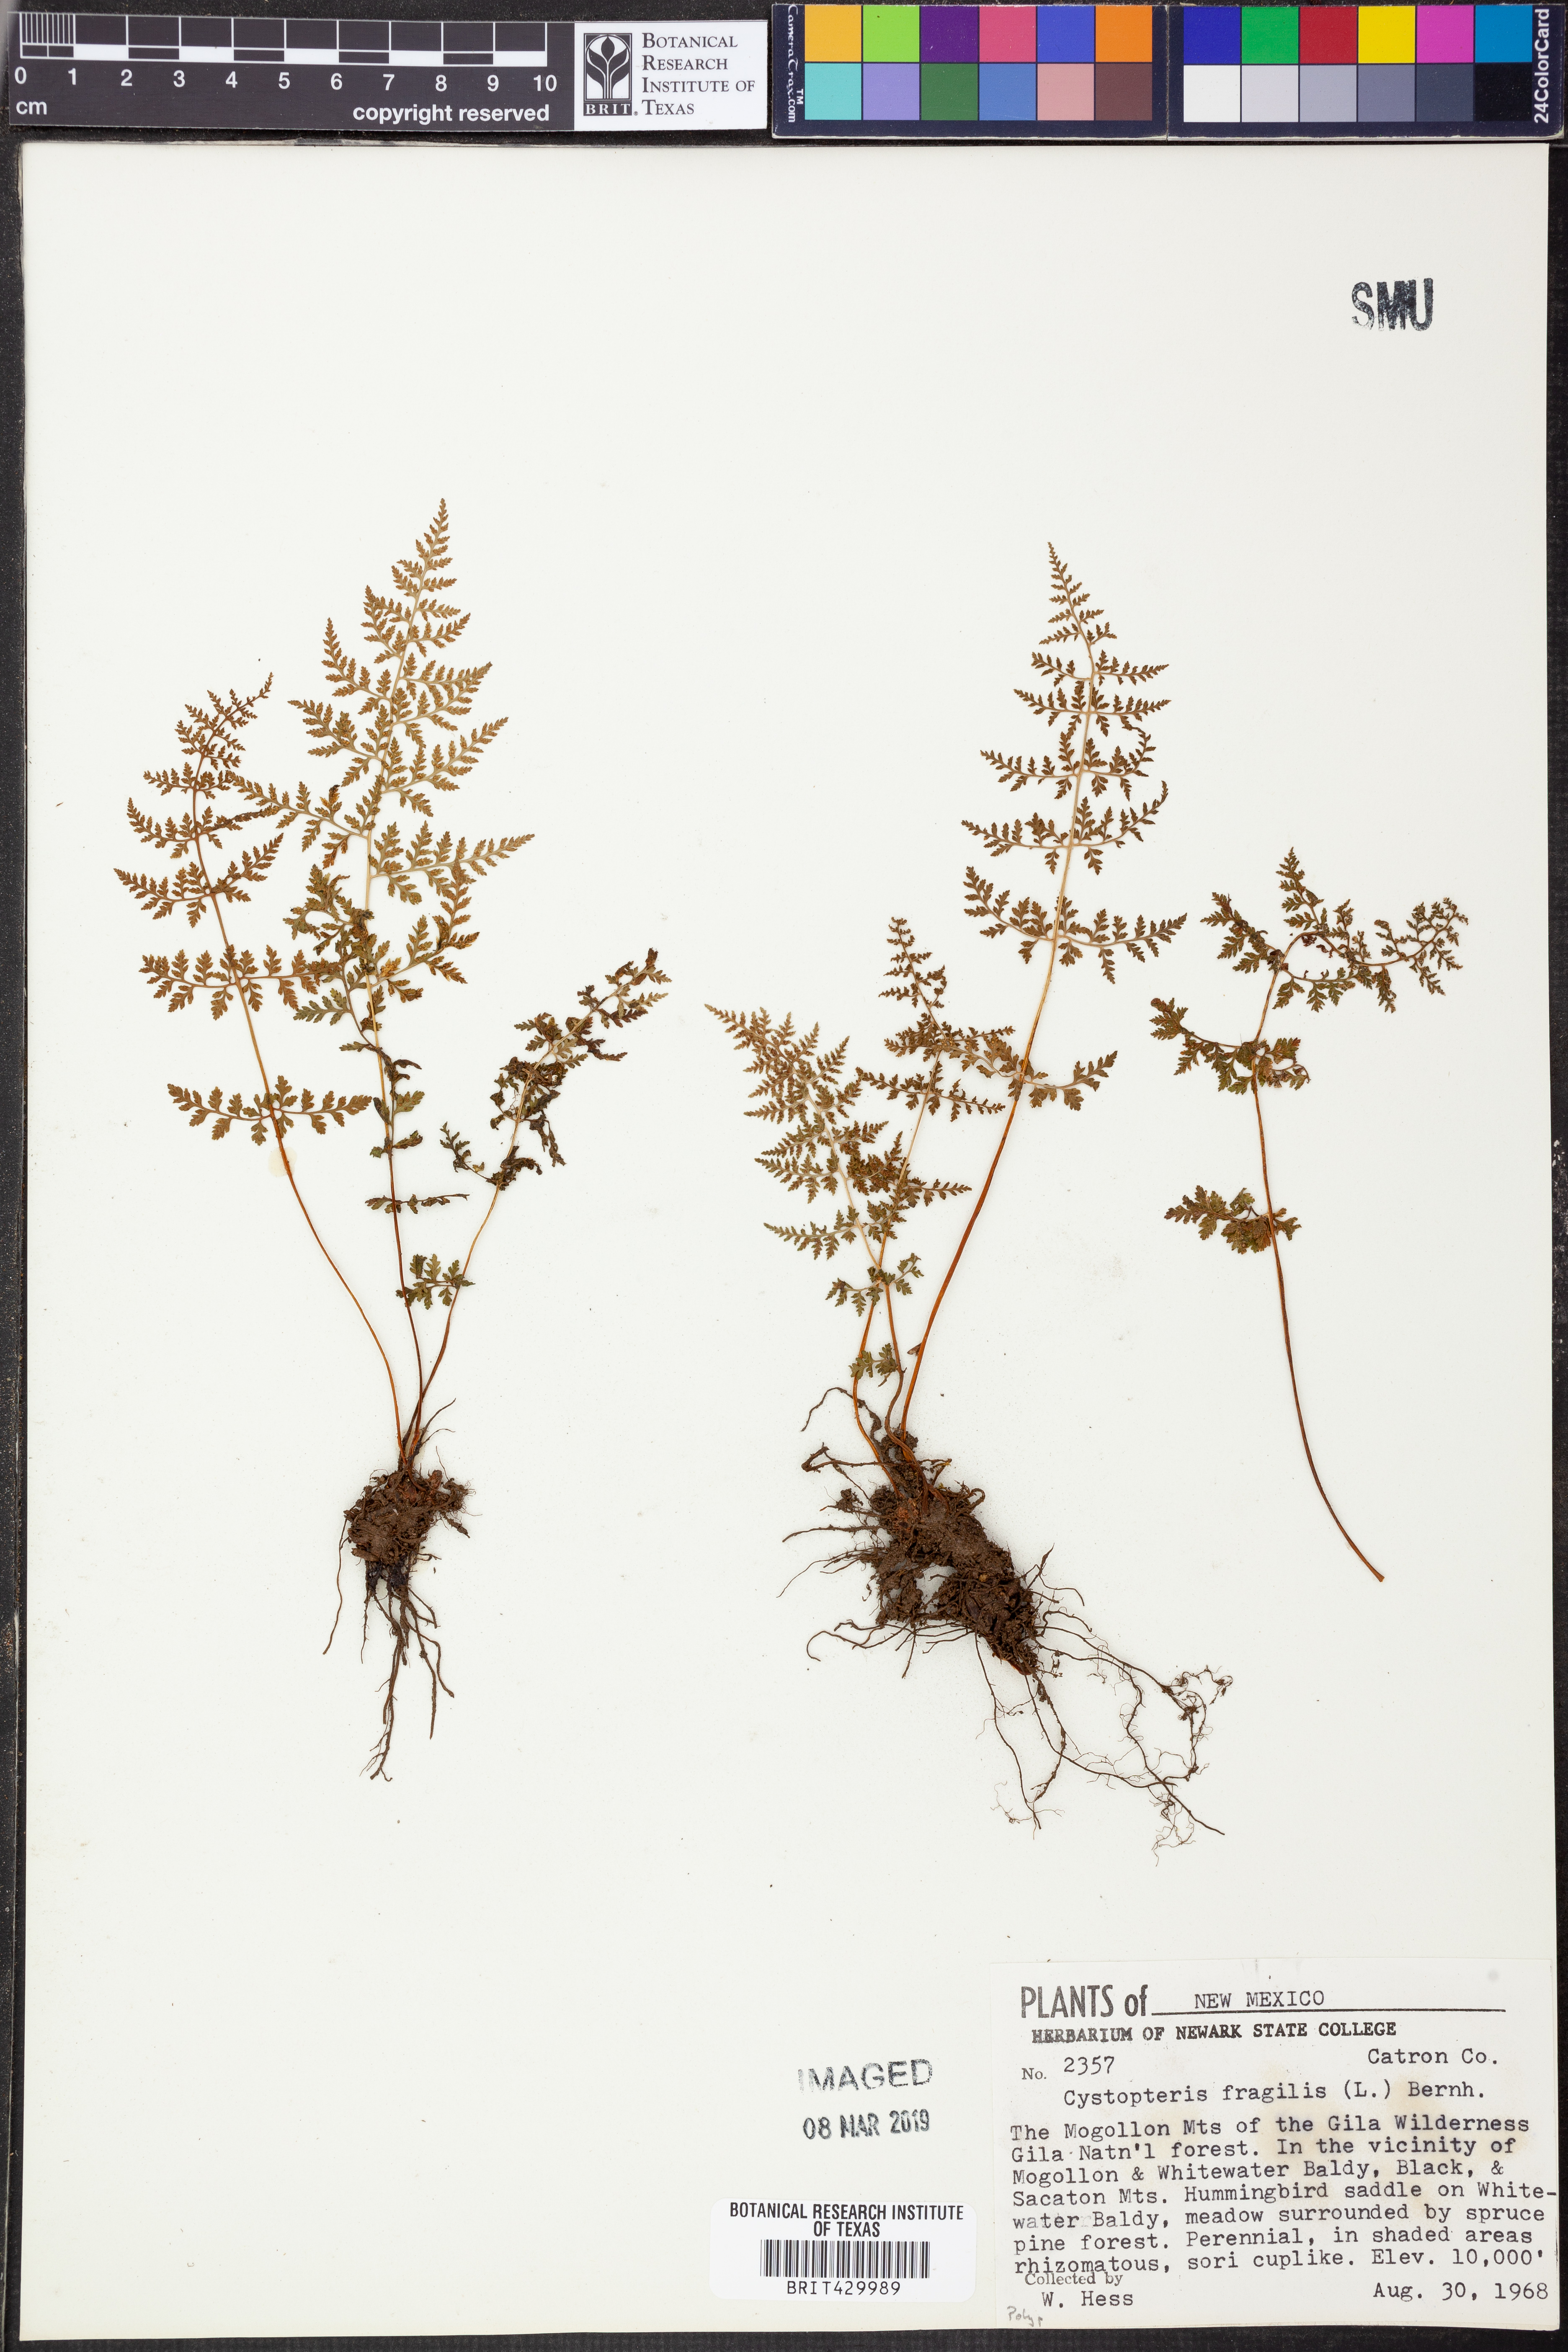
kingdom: Plantae
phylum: Tracheophyta
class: Polypodiopsida
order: Polypodiales
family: Cystopteridaceae
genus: Cystopteris
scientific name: Cystopteris fragilis
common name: Brittle bladder fern
